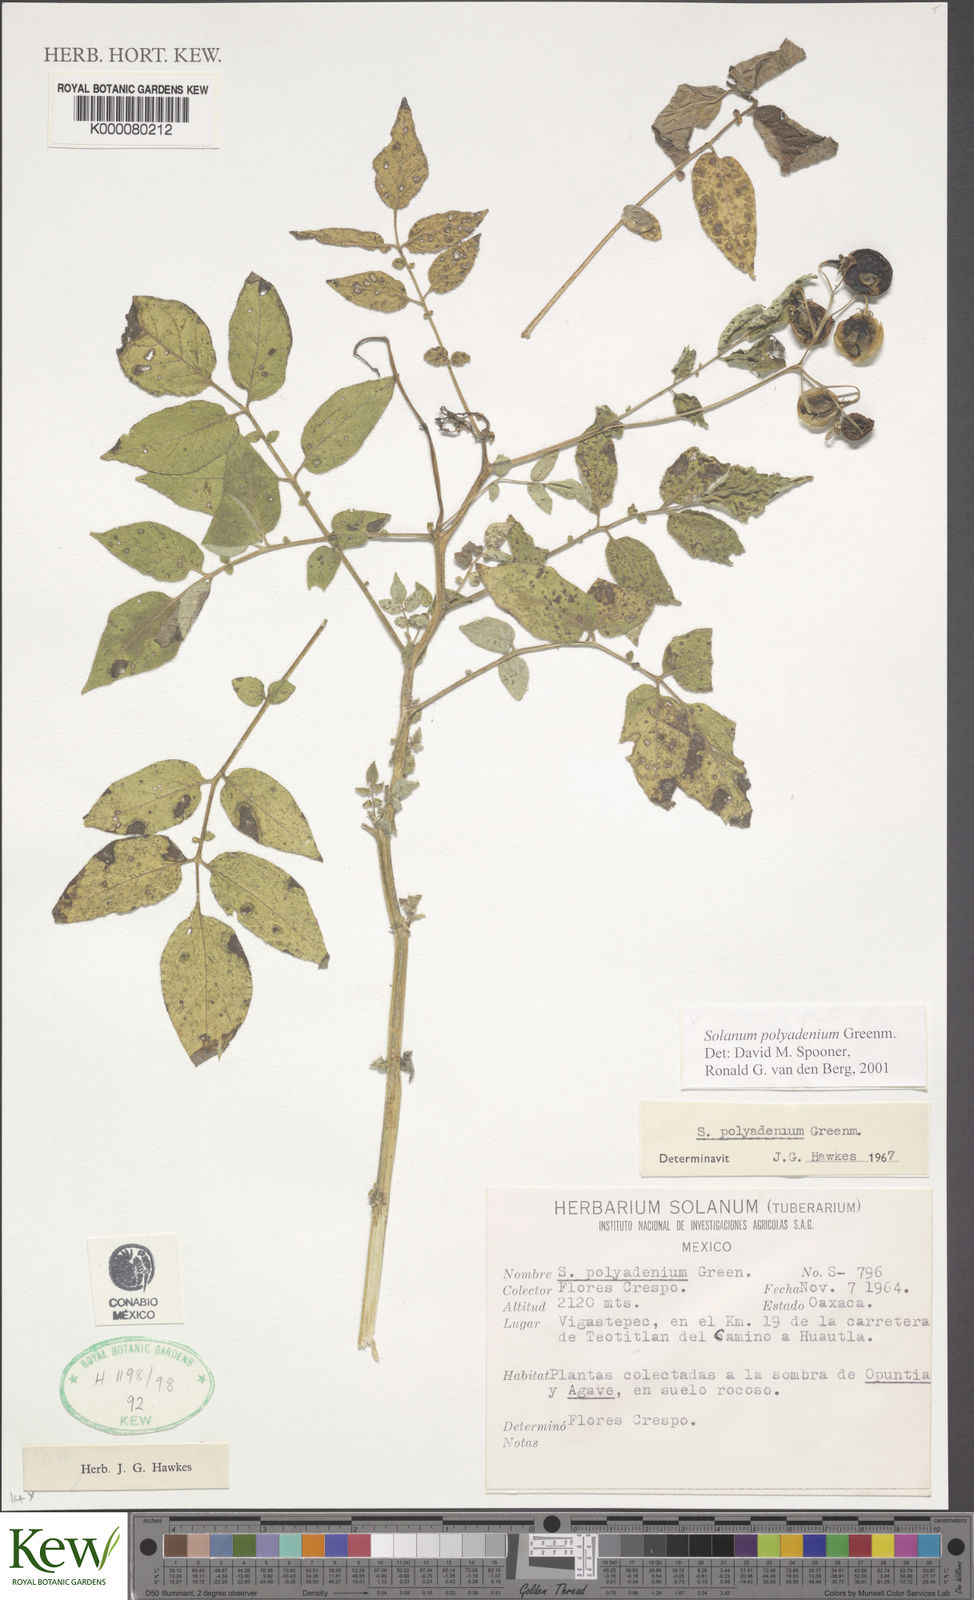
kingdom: Plantae
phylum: Tracheophyta
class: Magnoliopsida
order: Solanales
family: Solanaceae
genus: Solanum
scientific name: Solanum polyadenium
